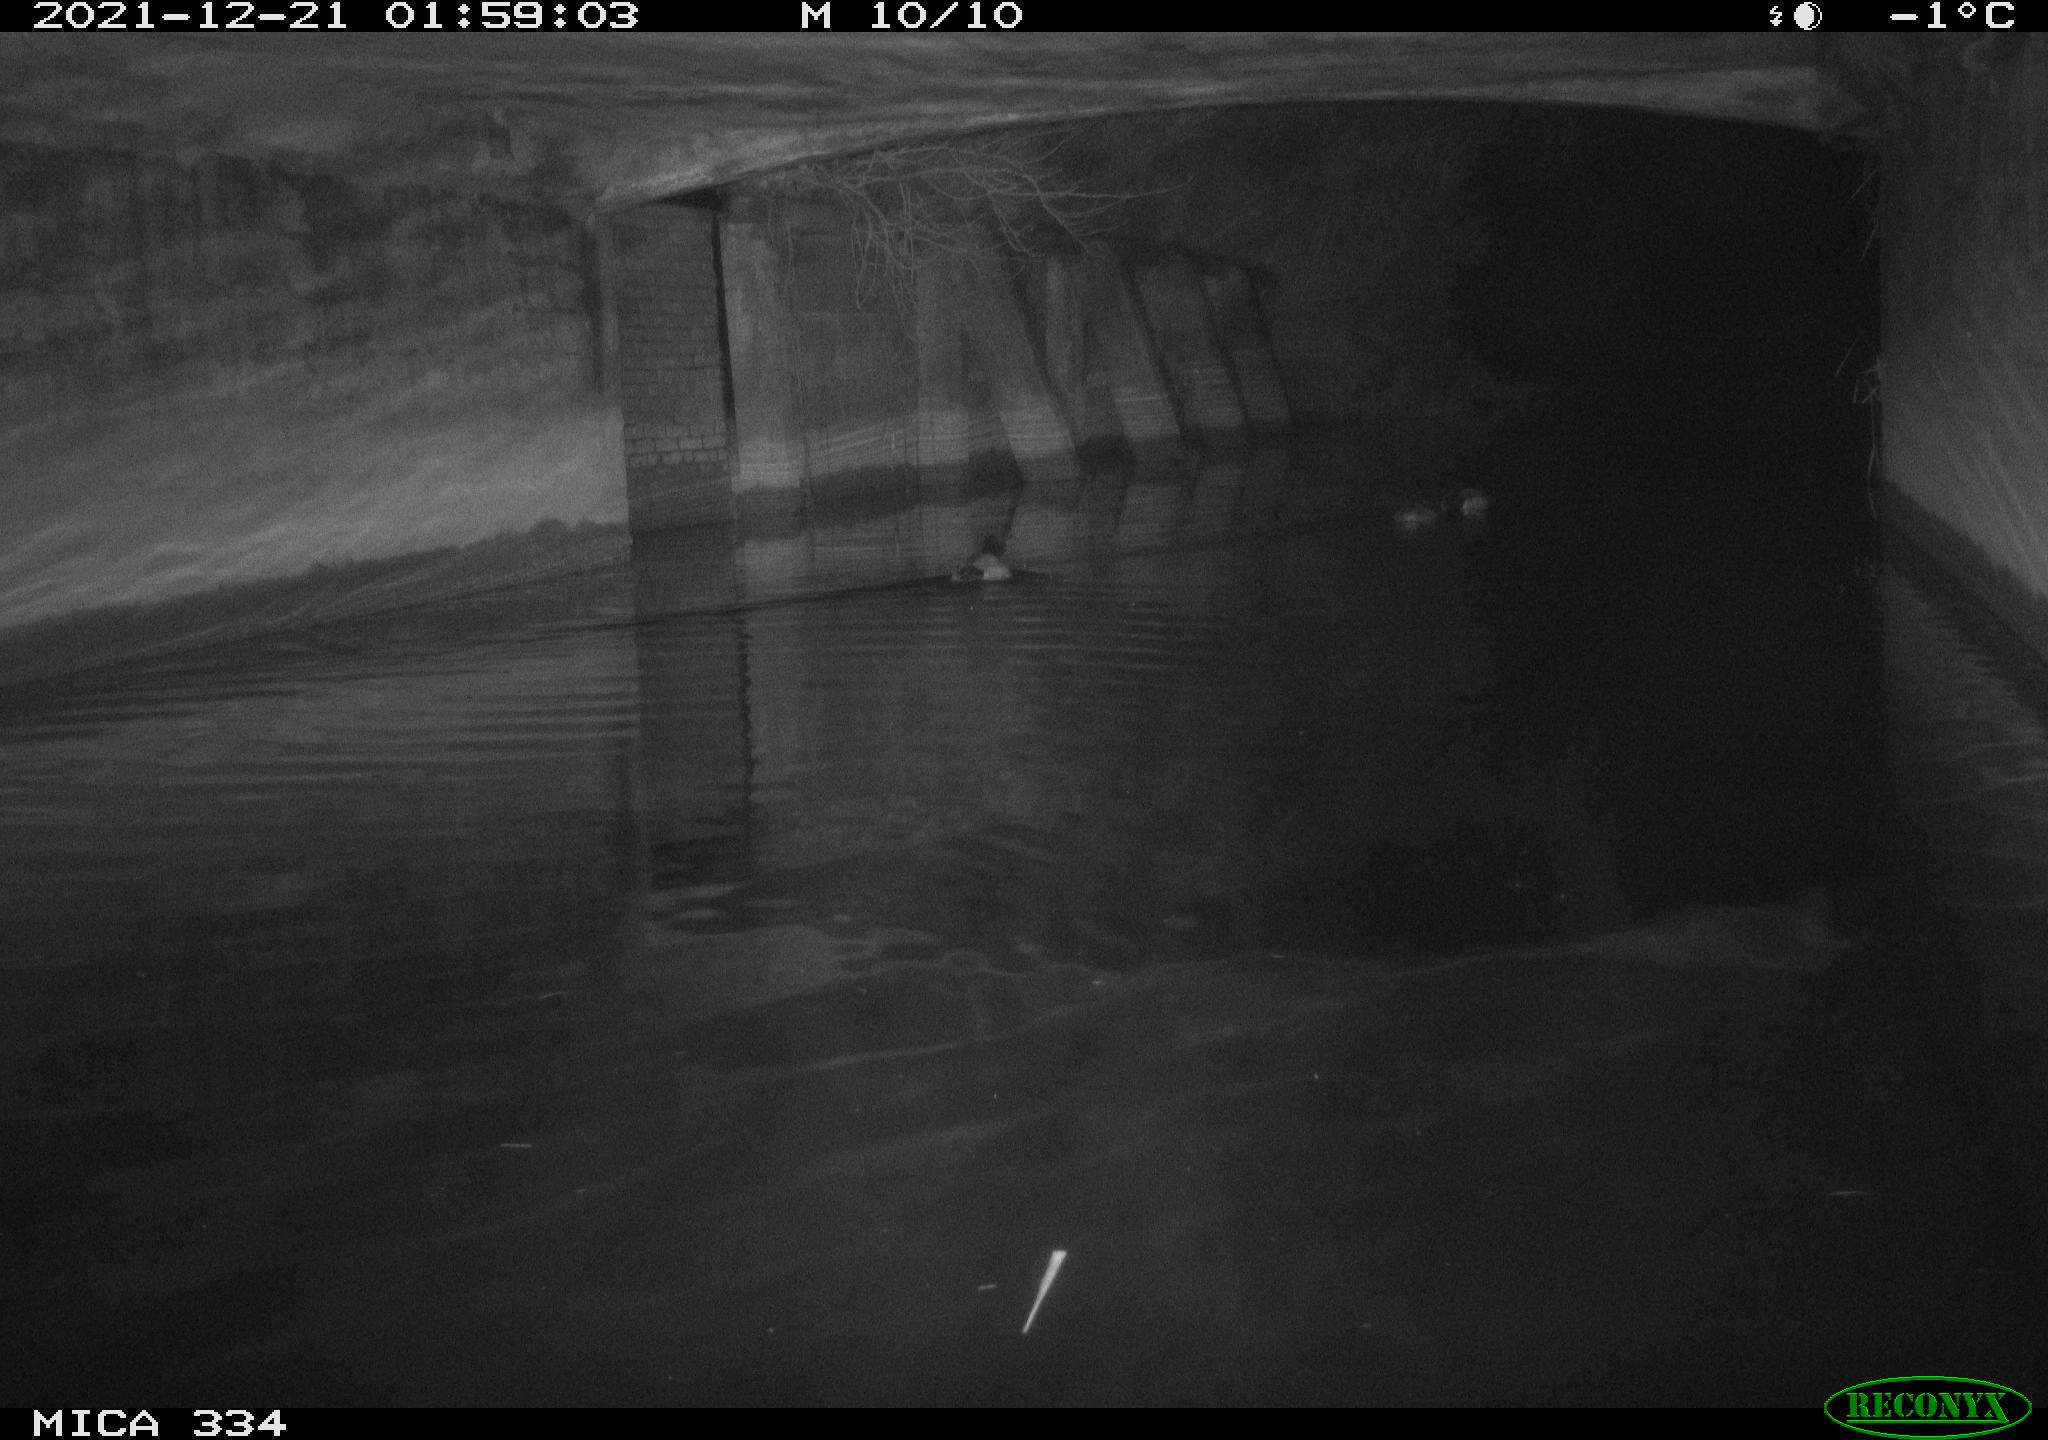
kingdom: Animalia
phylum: Chordata
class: Aves
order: Anseriformes
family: Anatidae
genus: Anas
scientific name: Anas platyrhynchos
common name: Mallard
